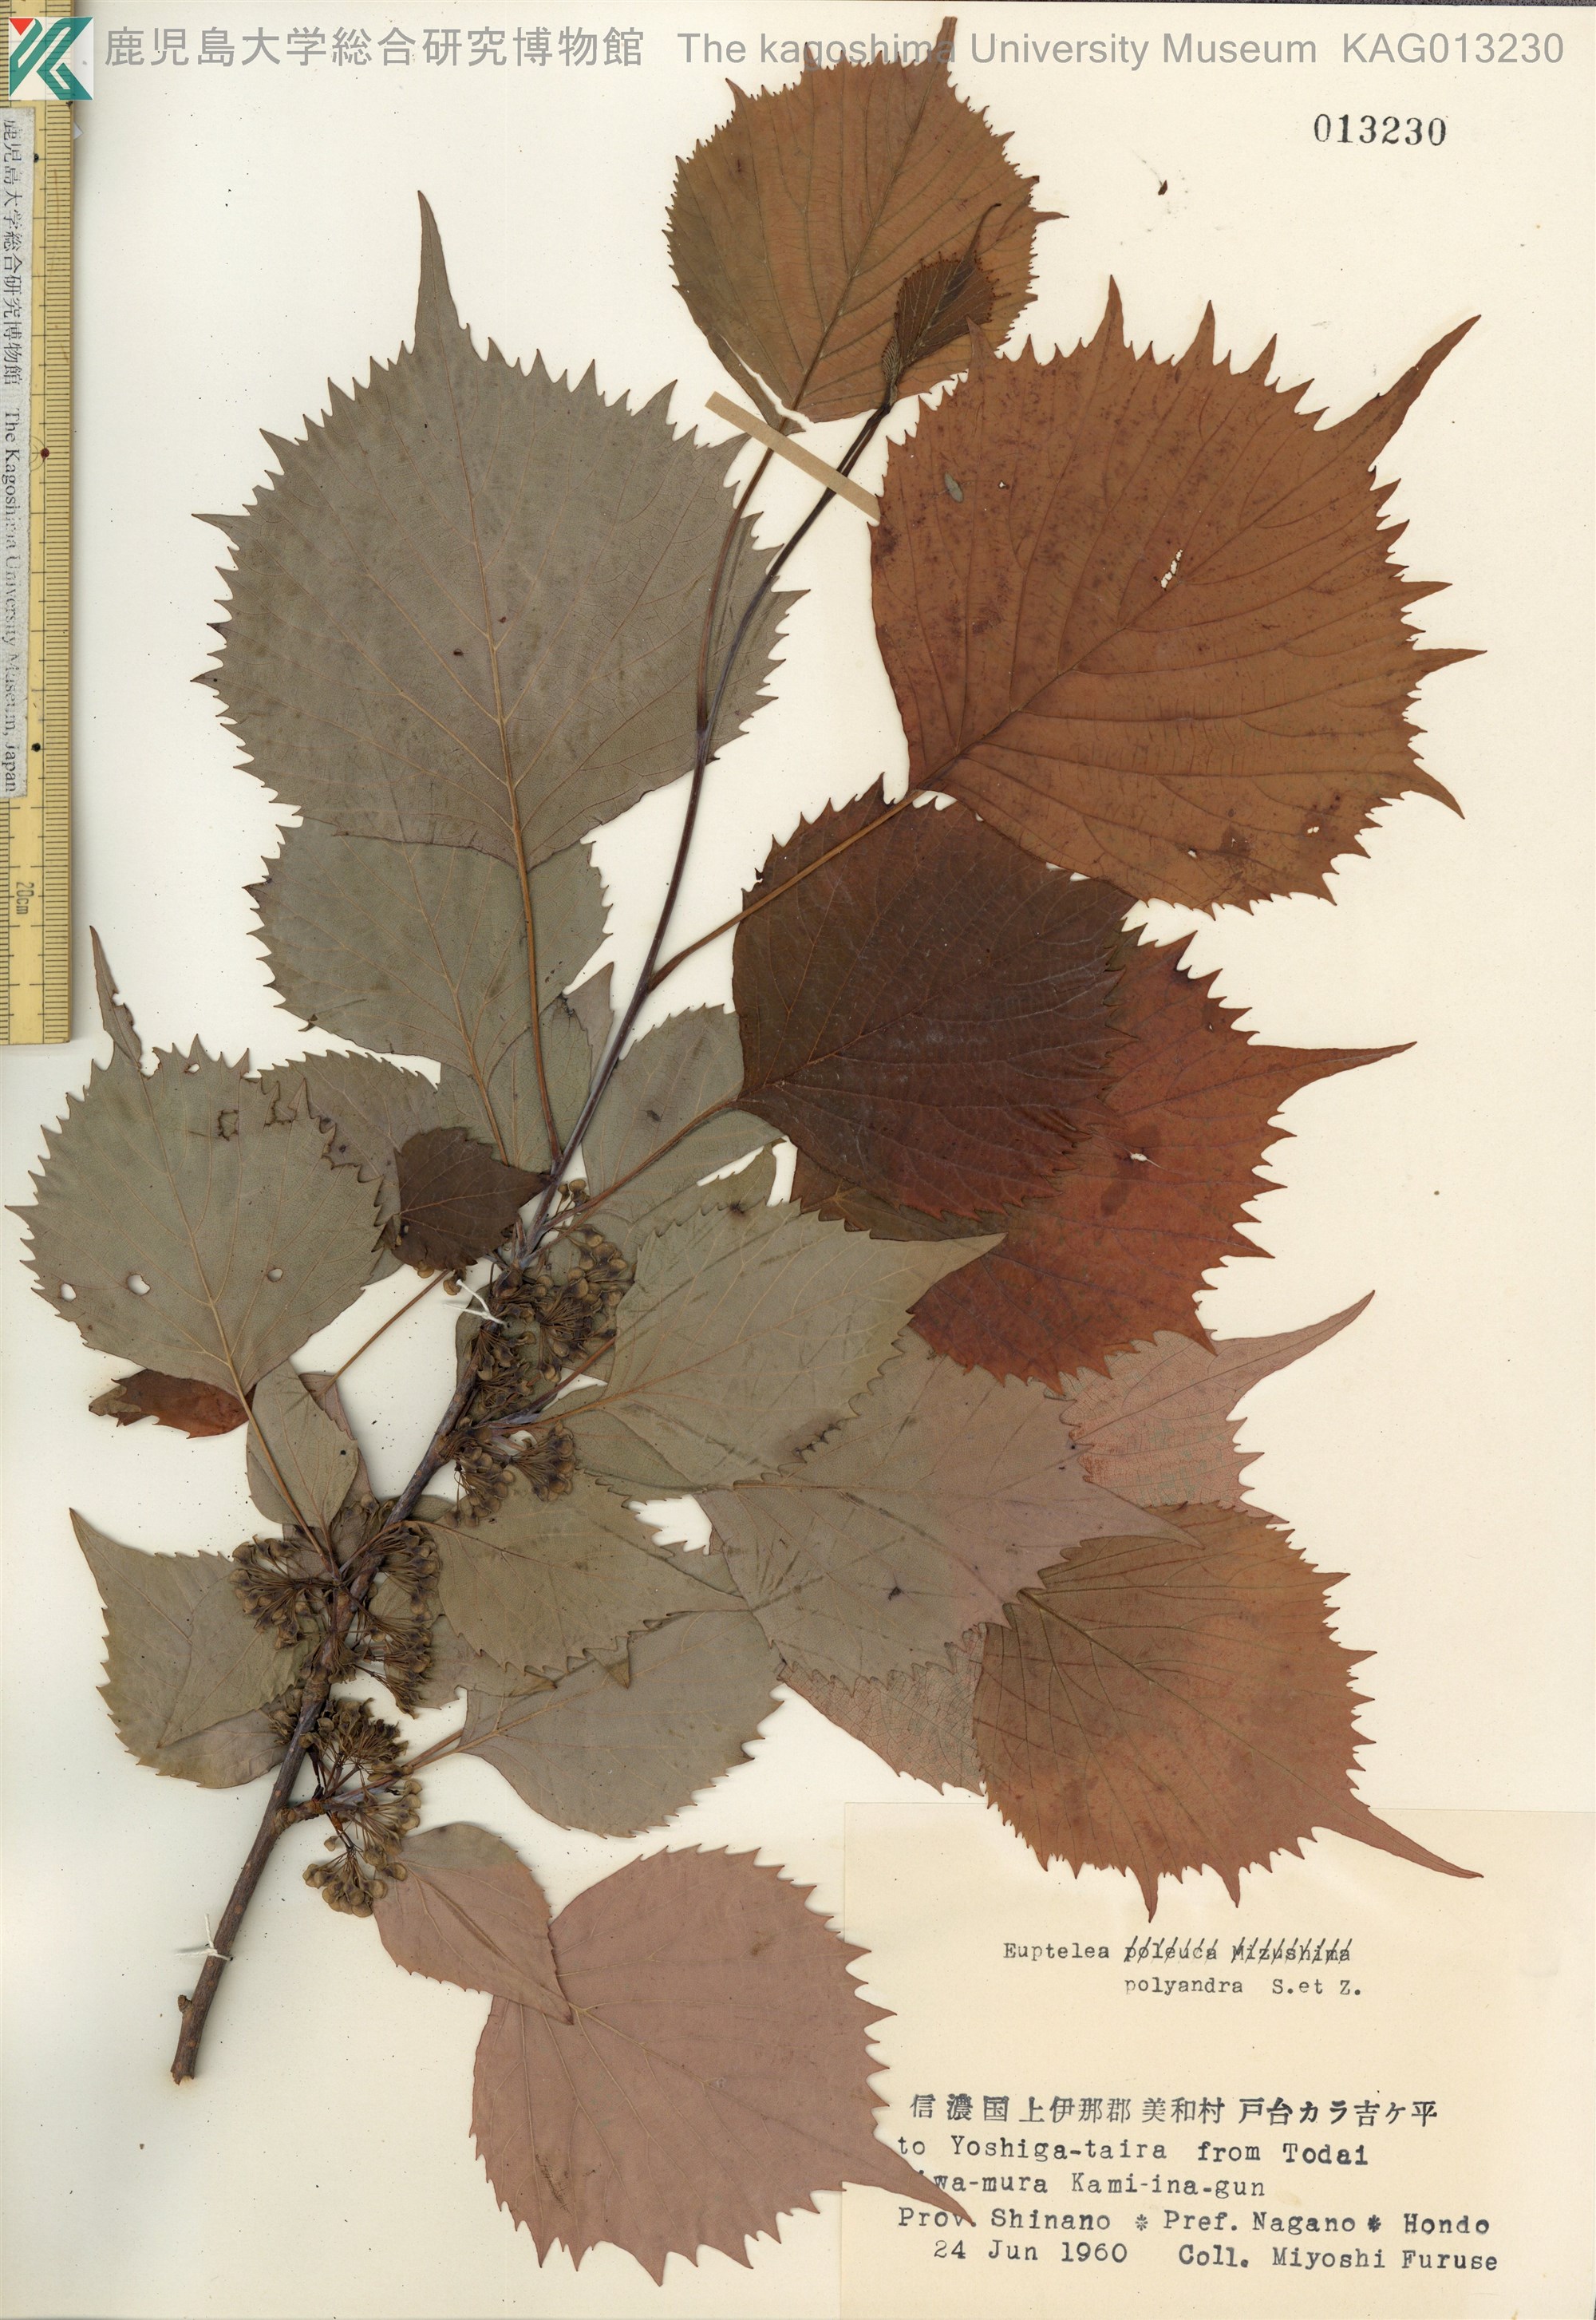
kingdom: Plantae
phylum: Tracheophyta
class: Magnoliopsida
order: Ranunculales
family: Eupteleaceae
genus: Euptelea
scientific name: Euptelea polyandra
